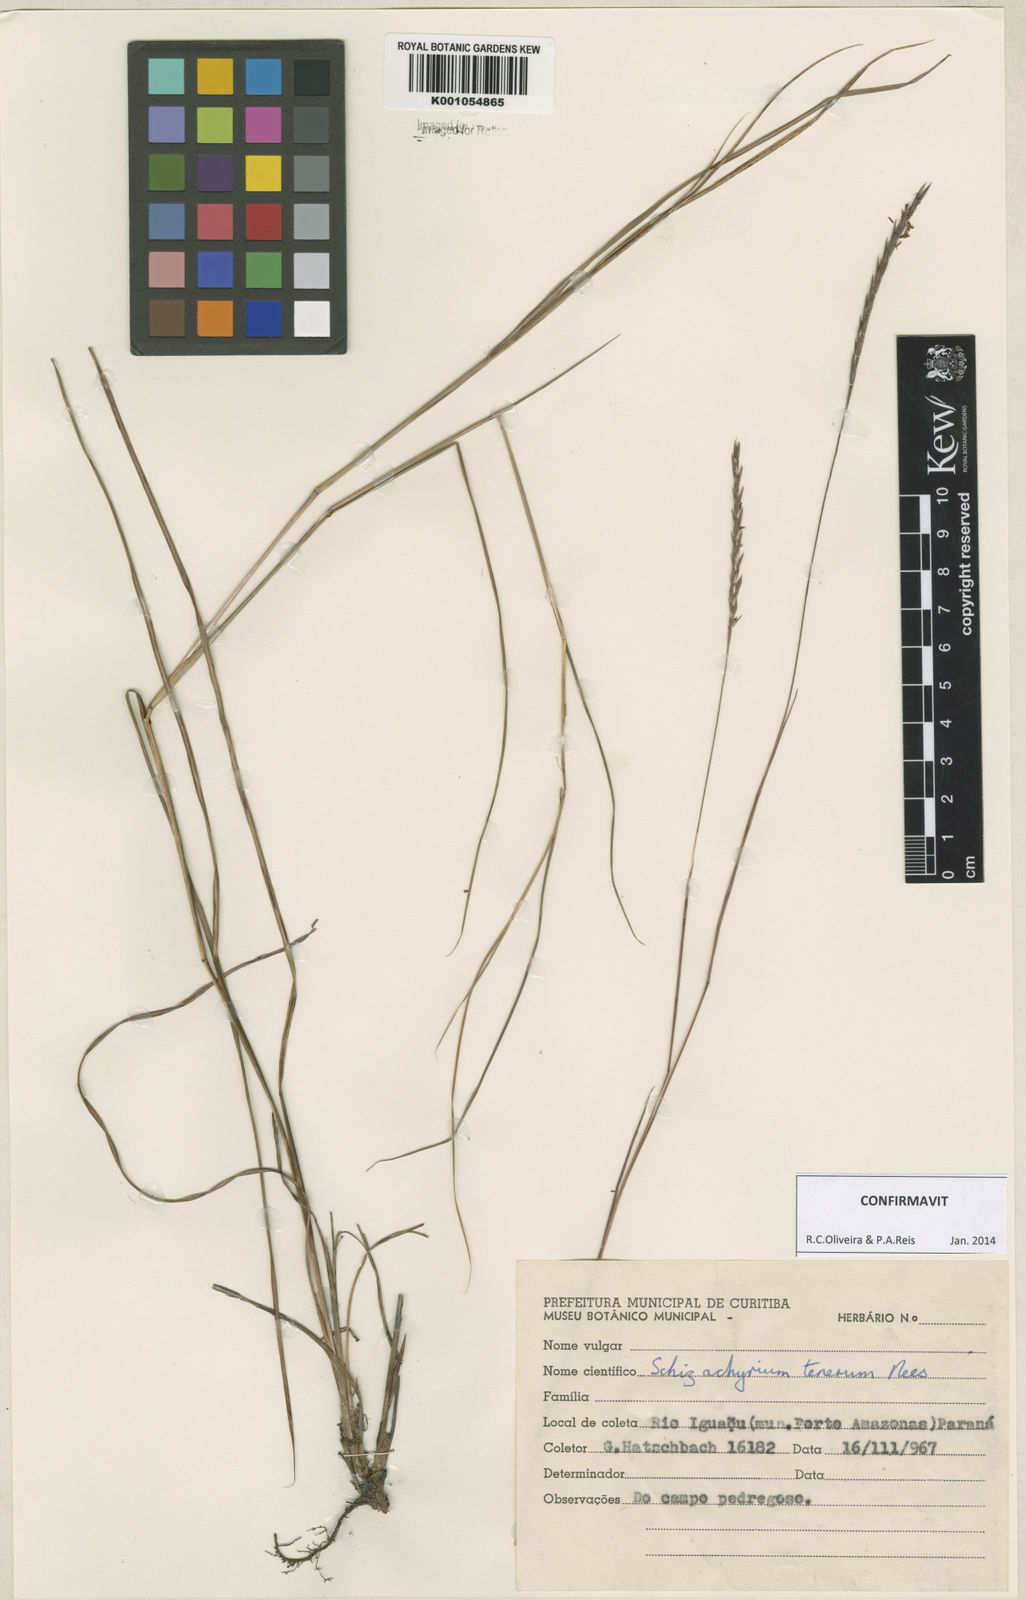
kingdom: Plantae
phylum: Tracheophyta
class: Liliopsida
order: Poales
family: Poaceae
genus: Andropogon
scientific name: Andropogon tener
